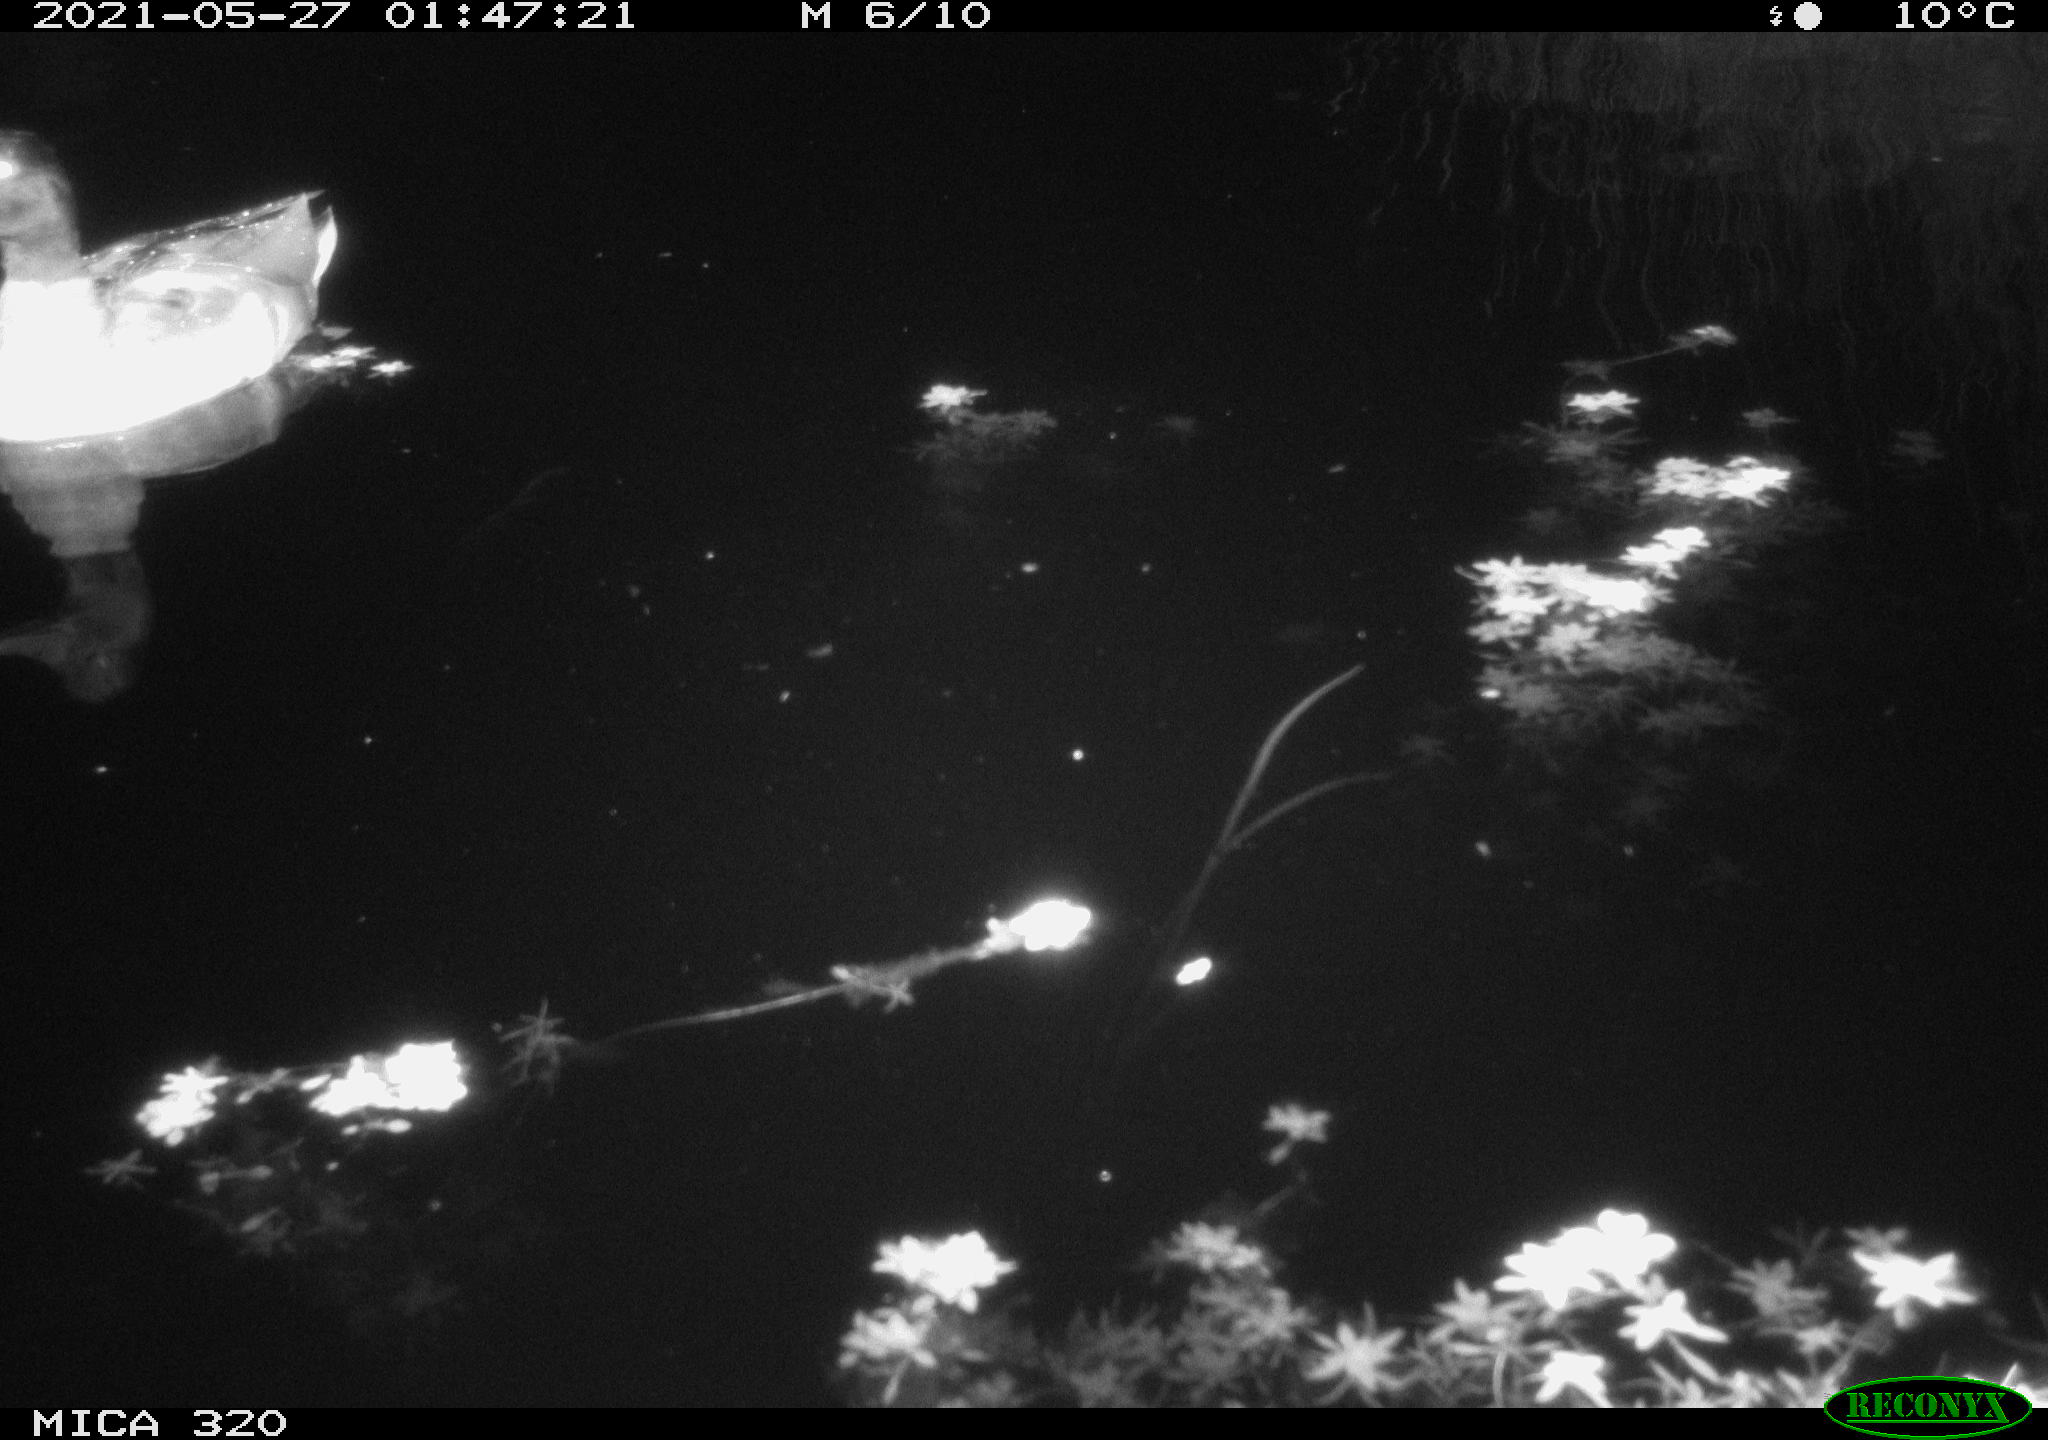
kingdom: Animalia
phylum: Chordata
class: Aves
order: Anseriformes
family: Anatidae
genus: Mareca
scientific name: Mareca strepera
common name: Gadwall
